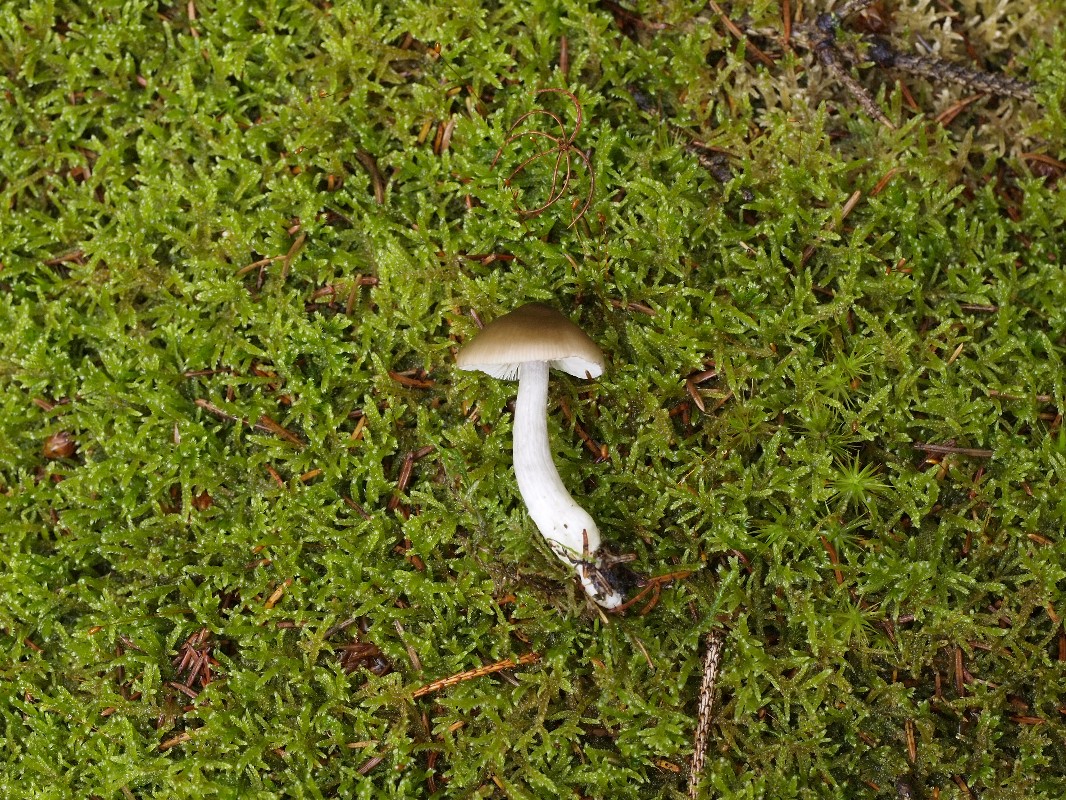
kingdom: Fungi
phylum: Basidiomycota
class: Agaricomycetes
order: Agaricales
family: Entolomataceae
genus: Entocybe
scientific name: Entocybe turbida
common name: plantage-rødblad
